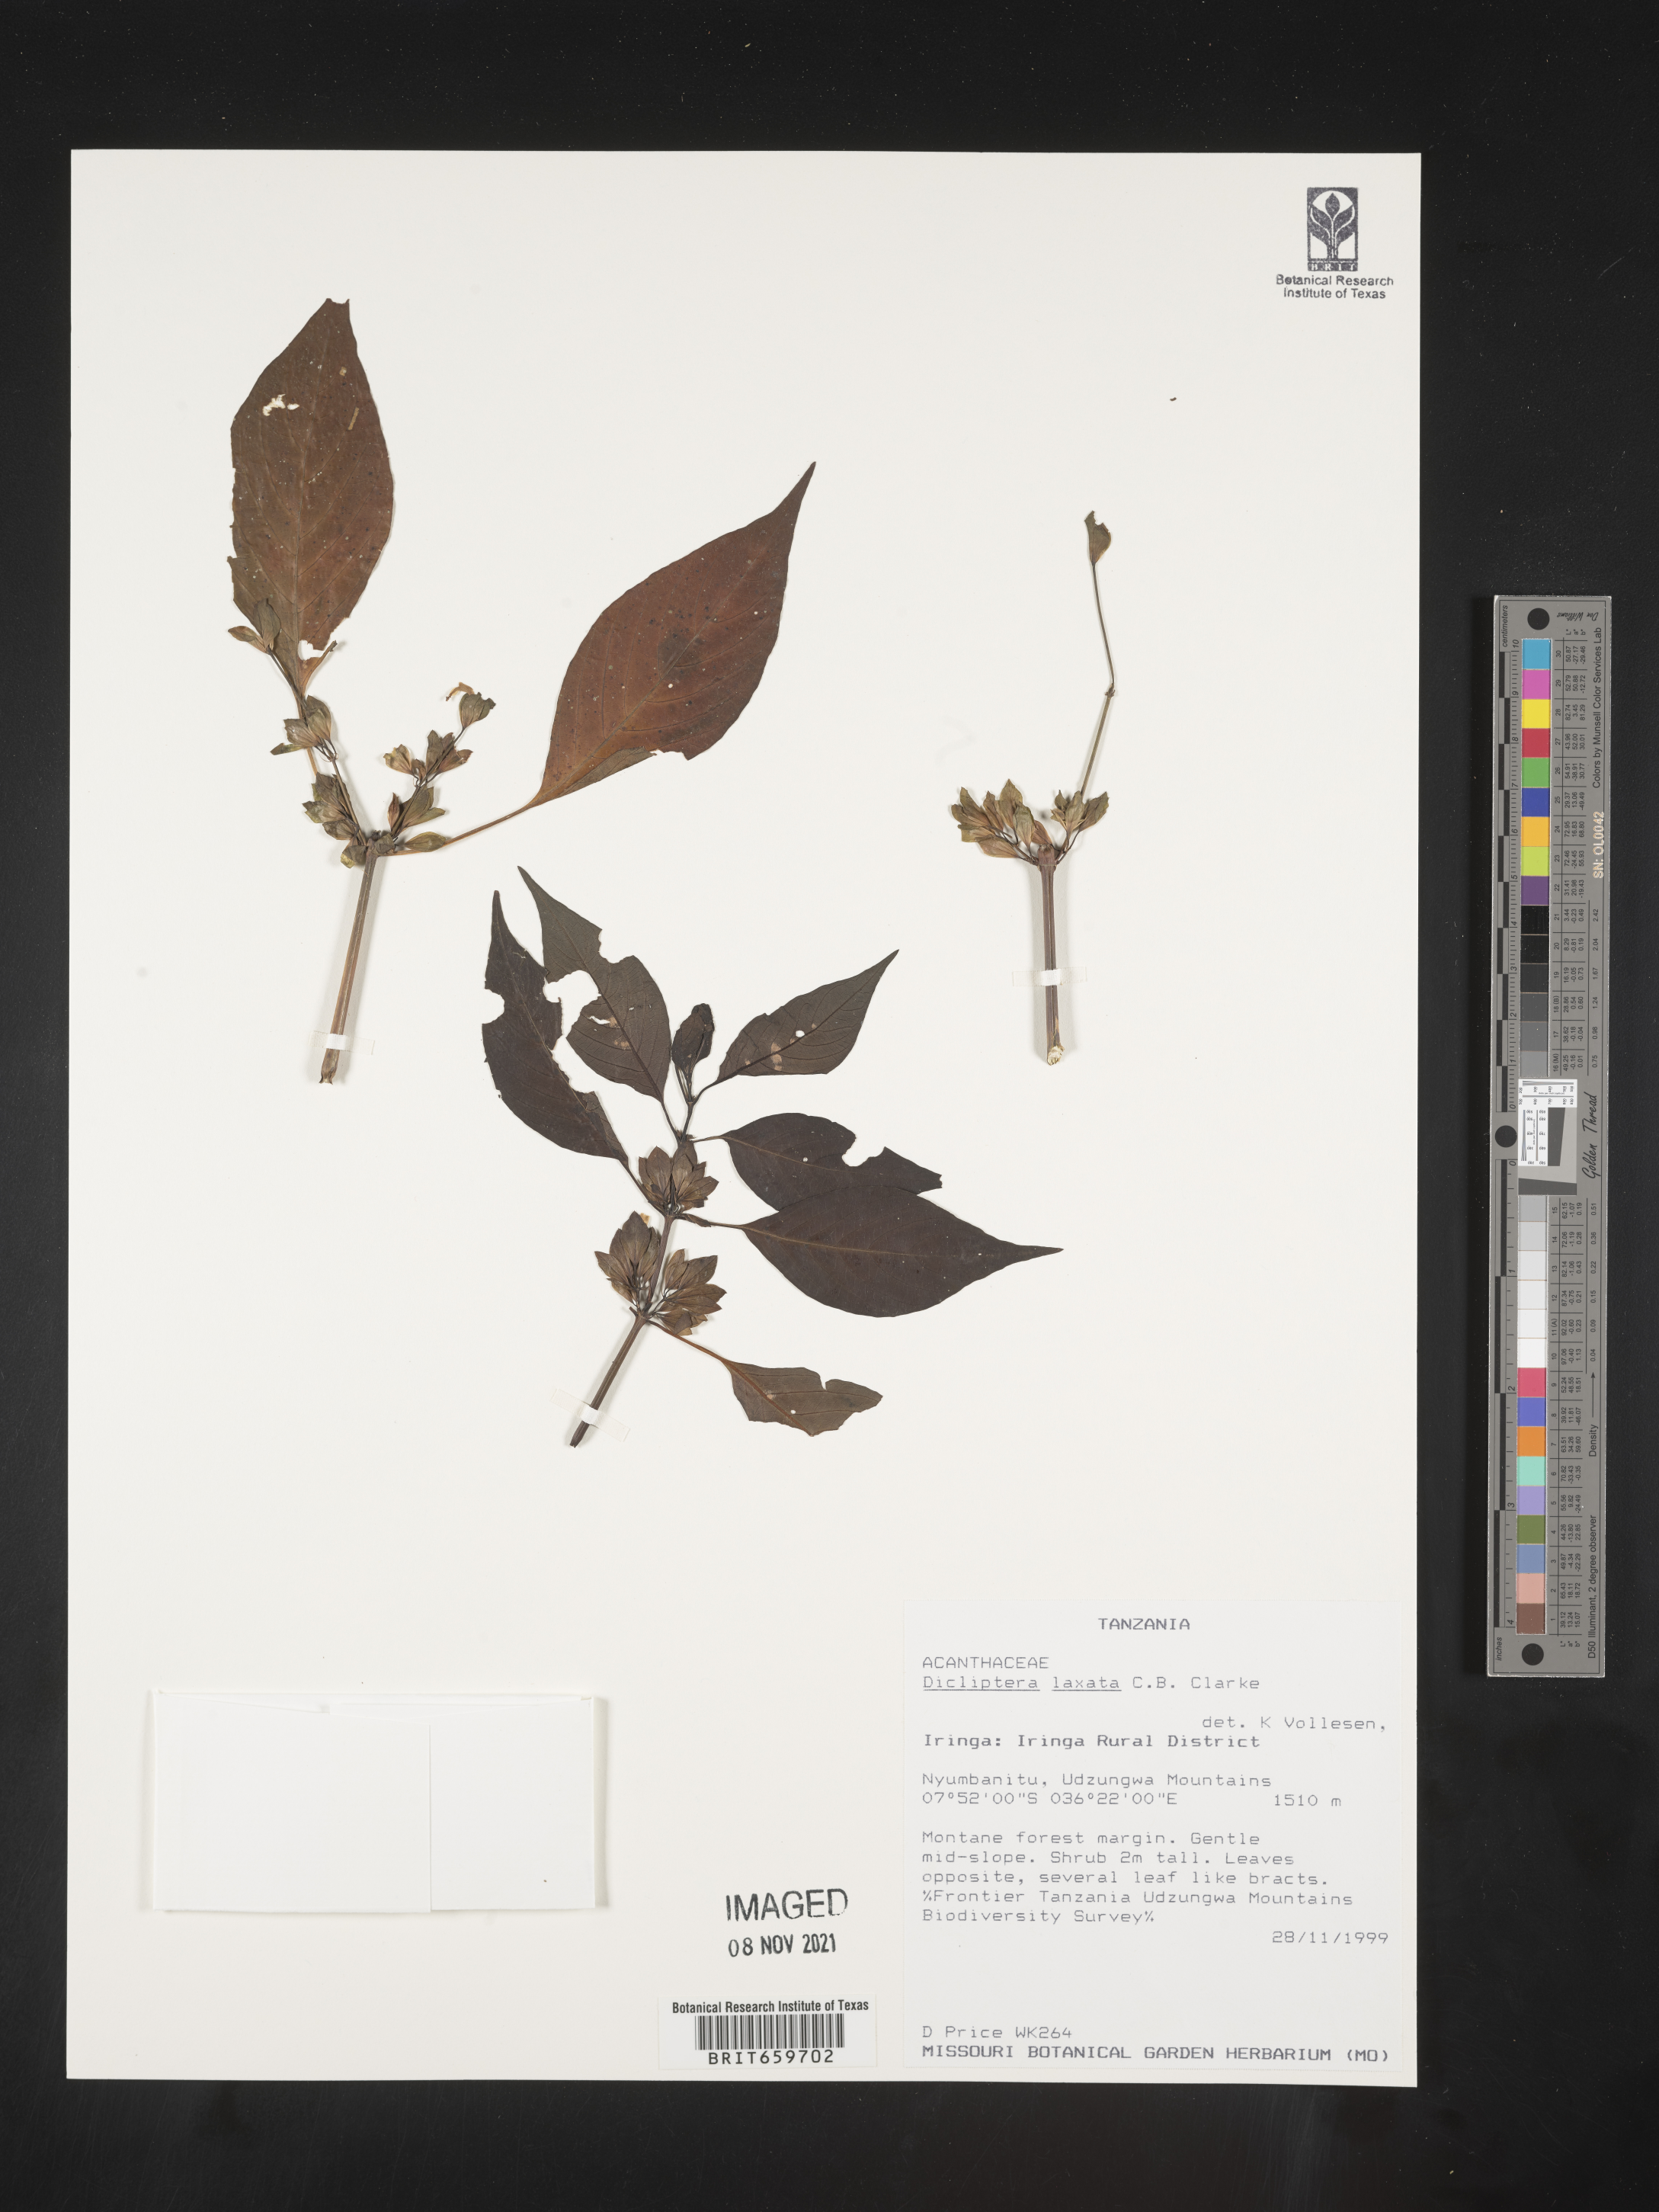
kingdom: Plantae
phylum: Tracheophyta
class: Magnoliopsida
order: Lamiales
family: Acanthaceae
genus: Dicliptera
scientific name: Dicliptera laxata
